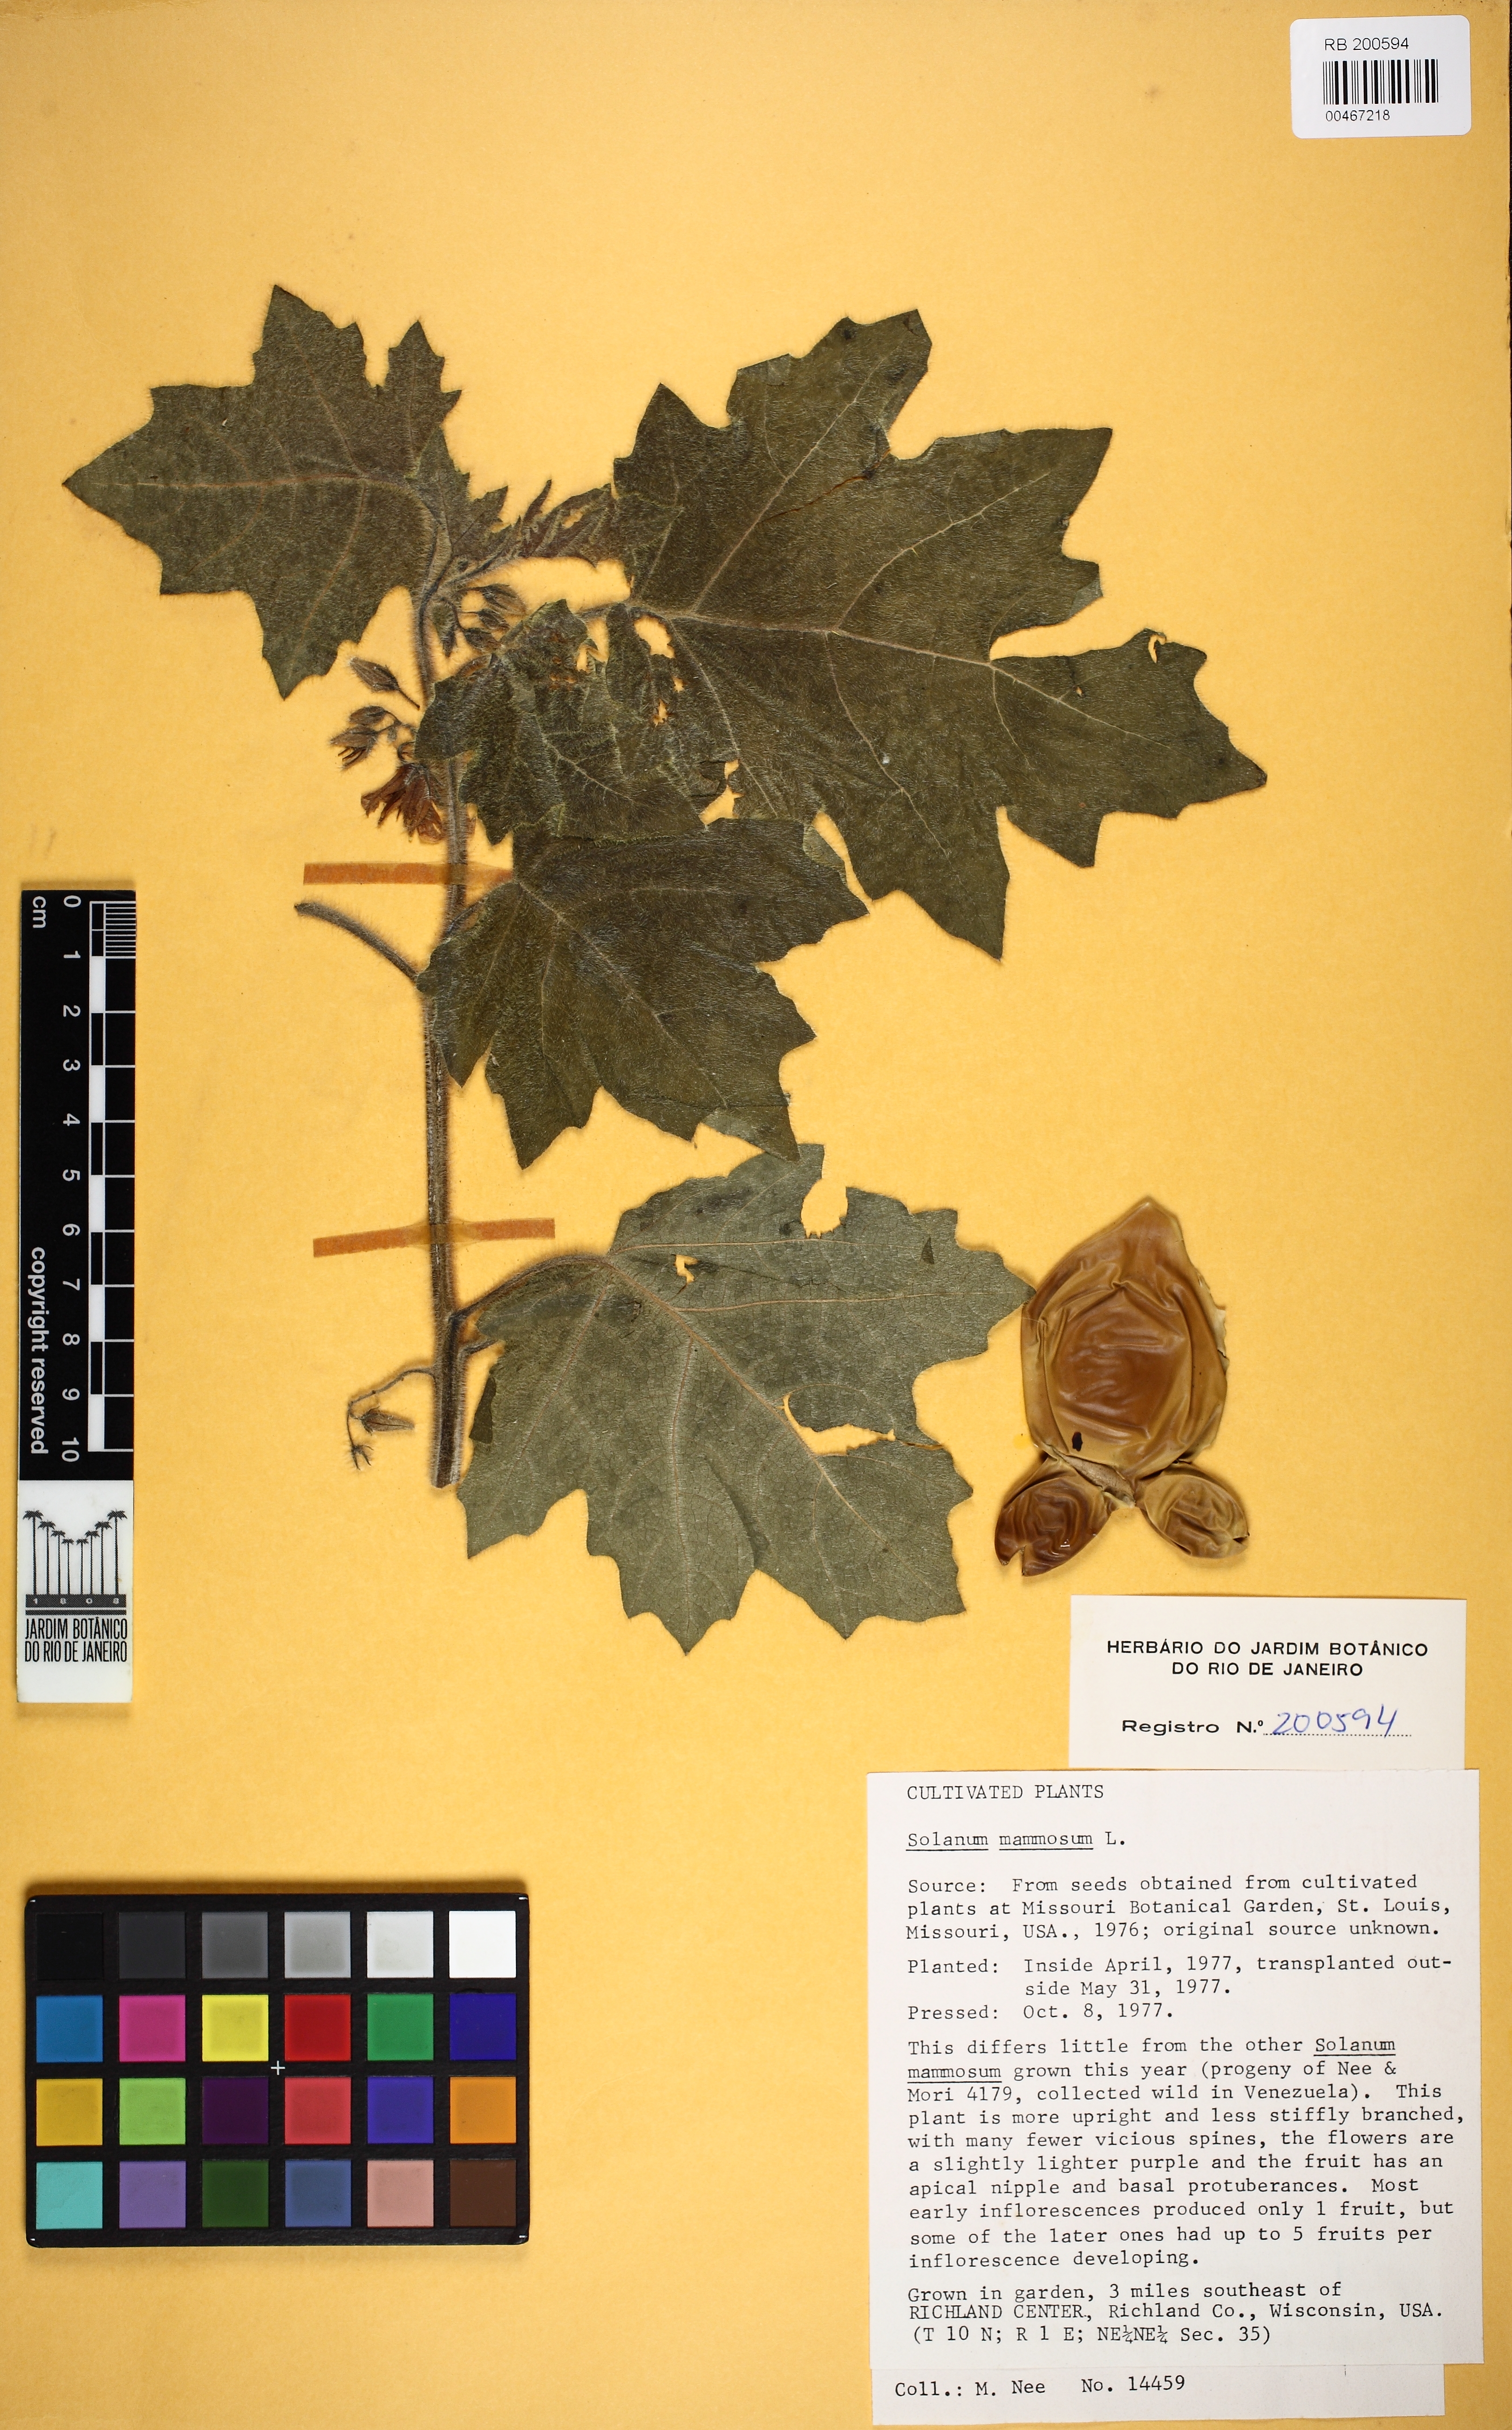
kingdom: Plantae
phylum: Tracheophyta
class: Magnoliopsida
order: Solanales
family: Solanaceae
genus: Solanum
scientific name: Solanum mammosum
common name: Nipple fruit
